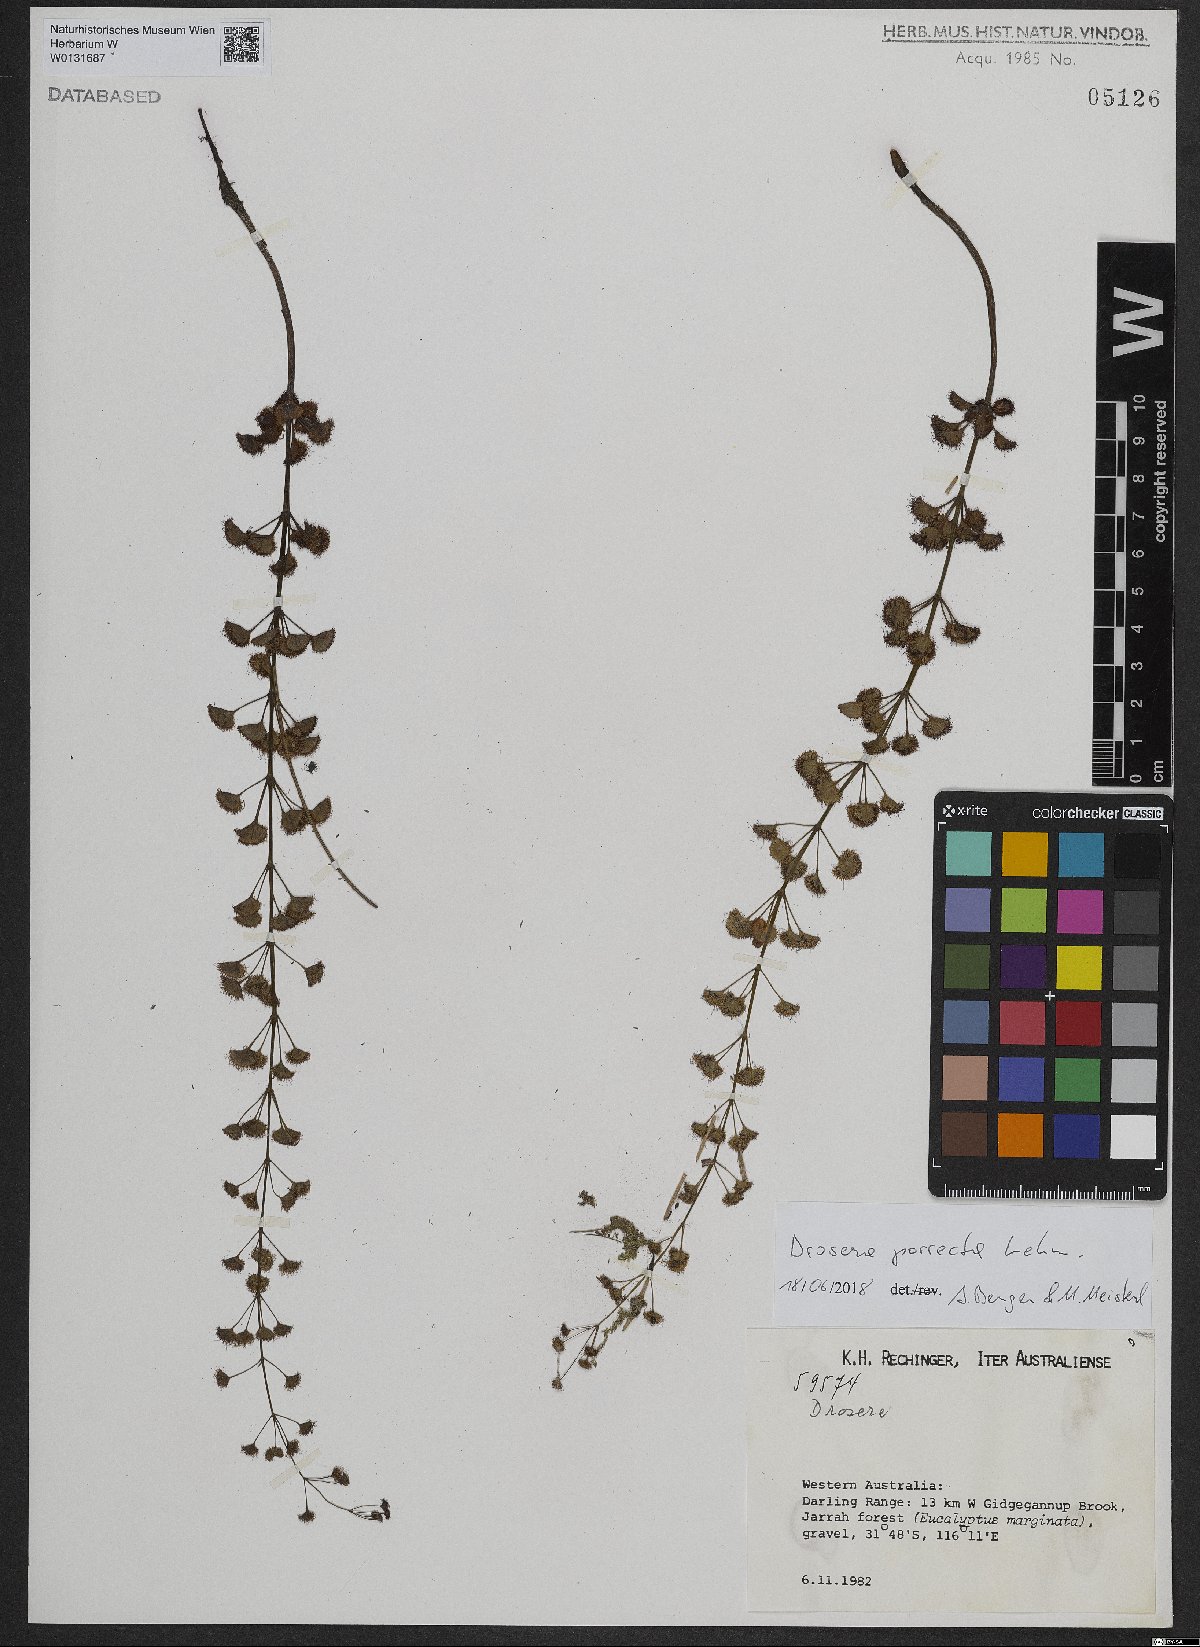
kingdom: Plantae
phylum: Tracheophyta
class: Magnoliopsida
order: Caryophyllales
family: Droseraceae
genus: Drosera
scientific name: Drosera stolonifera
